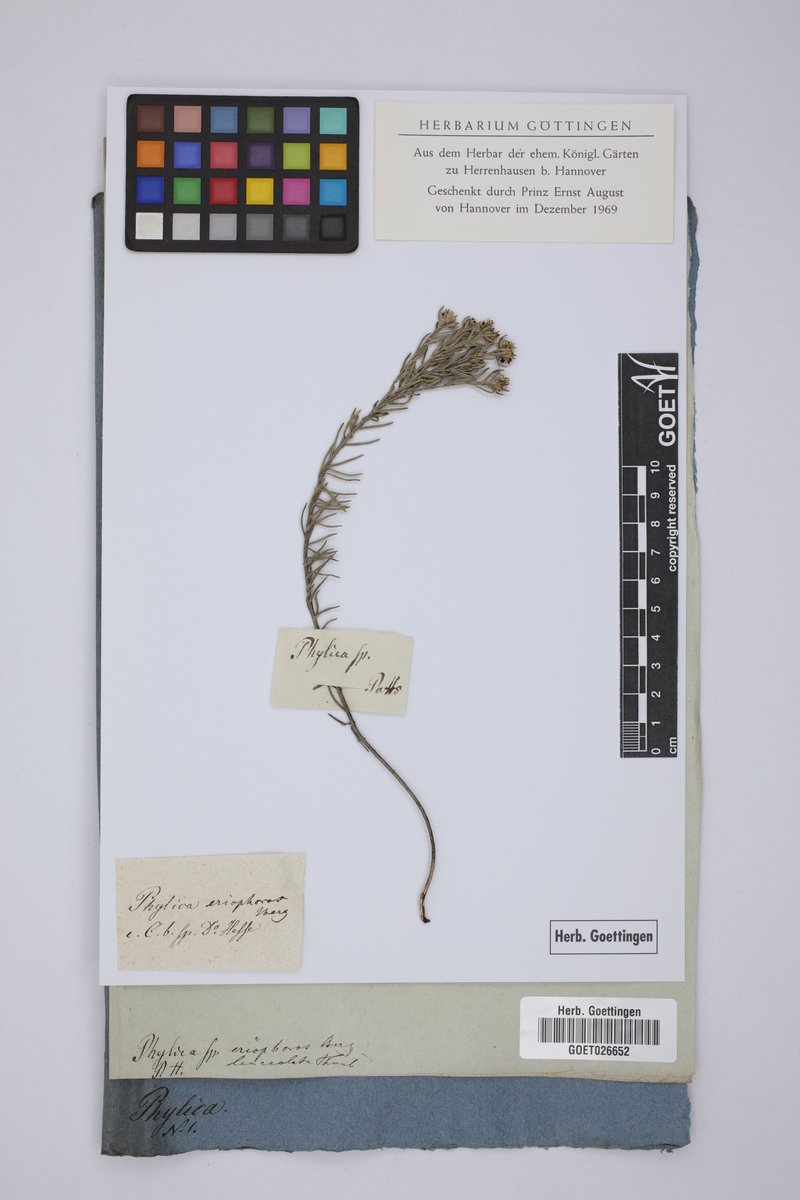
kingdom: Plantae
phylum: Tracheophyta
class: Magnoliopsida
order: Rosales
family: Rhamnaceae
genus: Phylica
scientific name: Phylica imberbis
